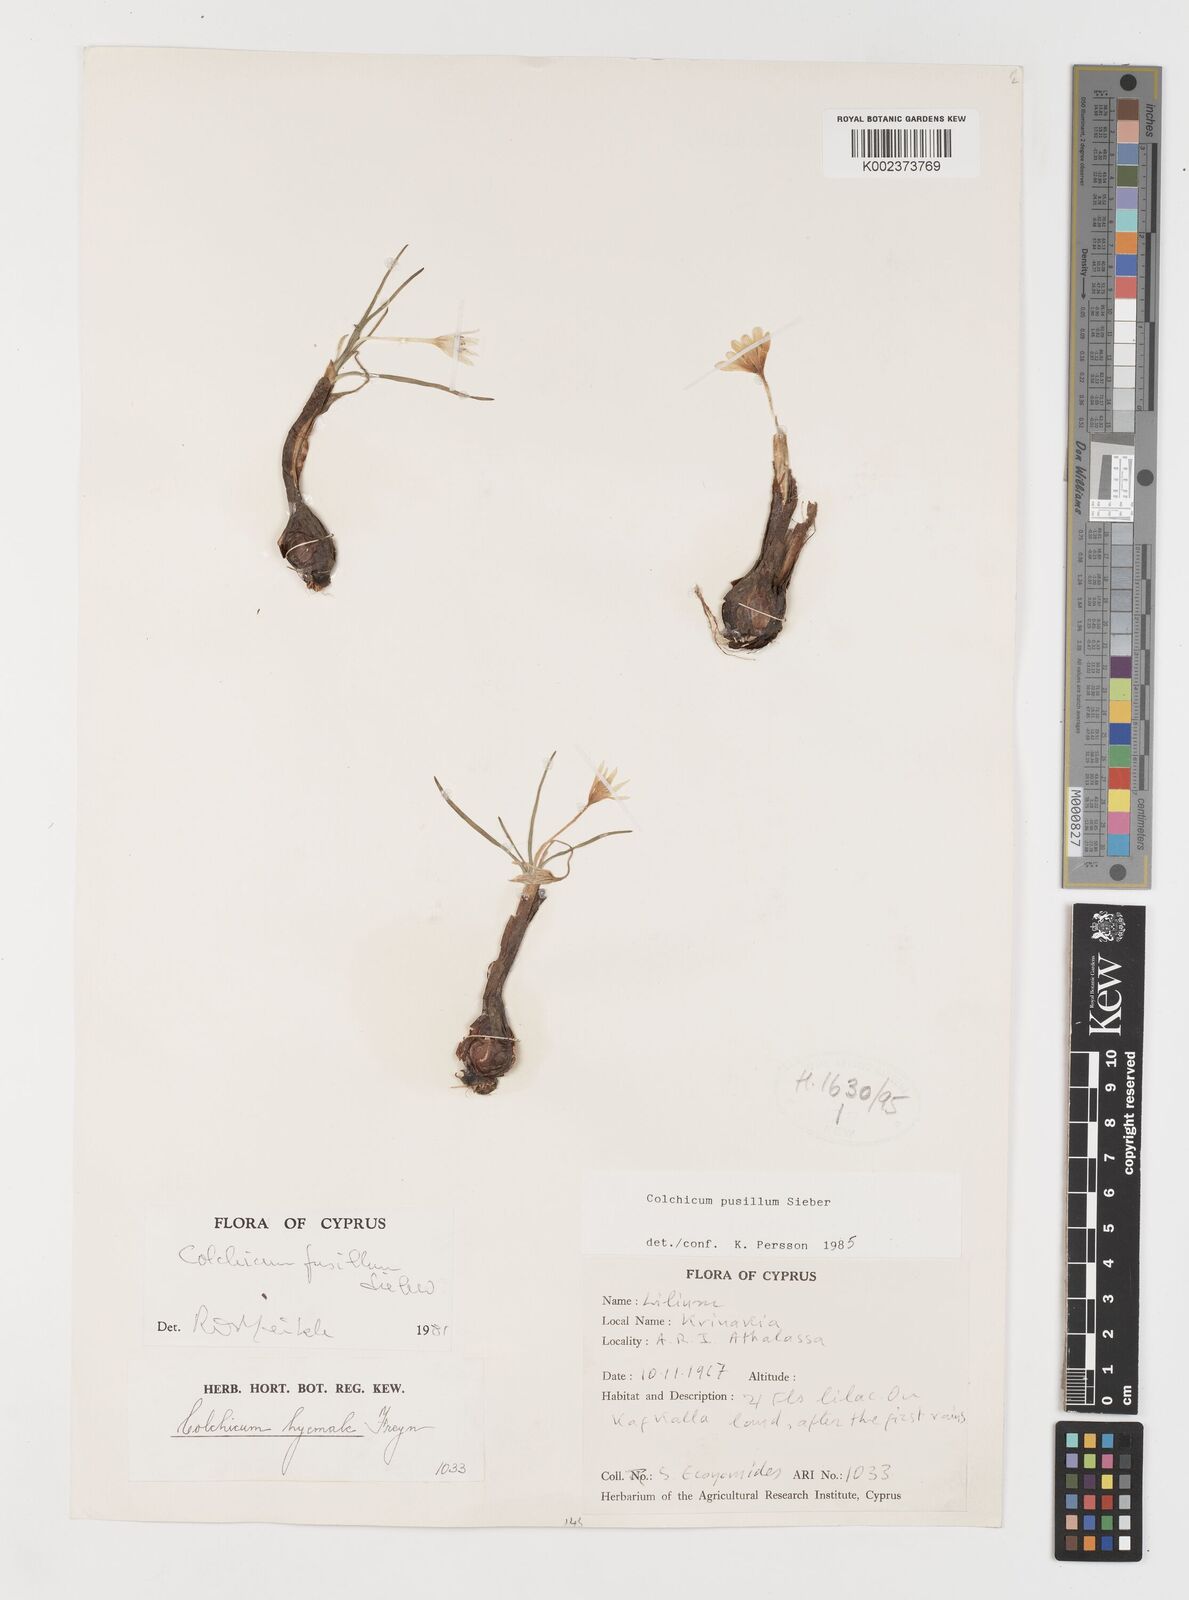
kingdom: Plantae
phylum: Tracheophyta
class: Liliopsida
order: Liliales
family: Colchicaceae
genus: Colchicum
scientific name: Colchicum pusillum
